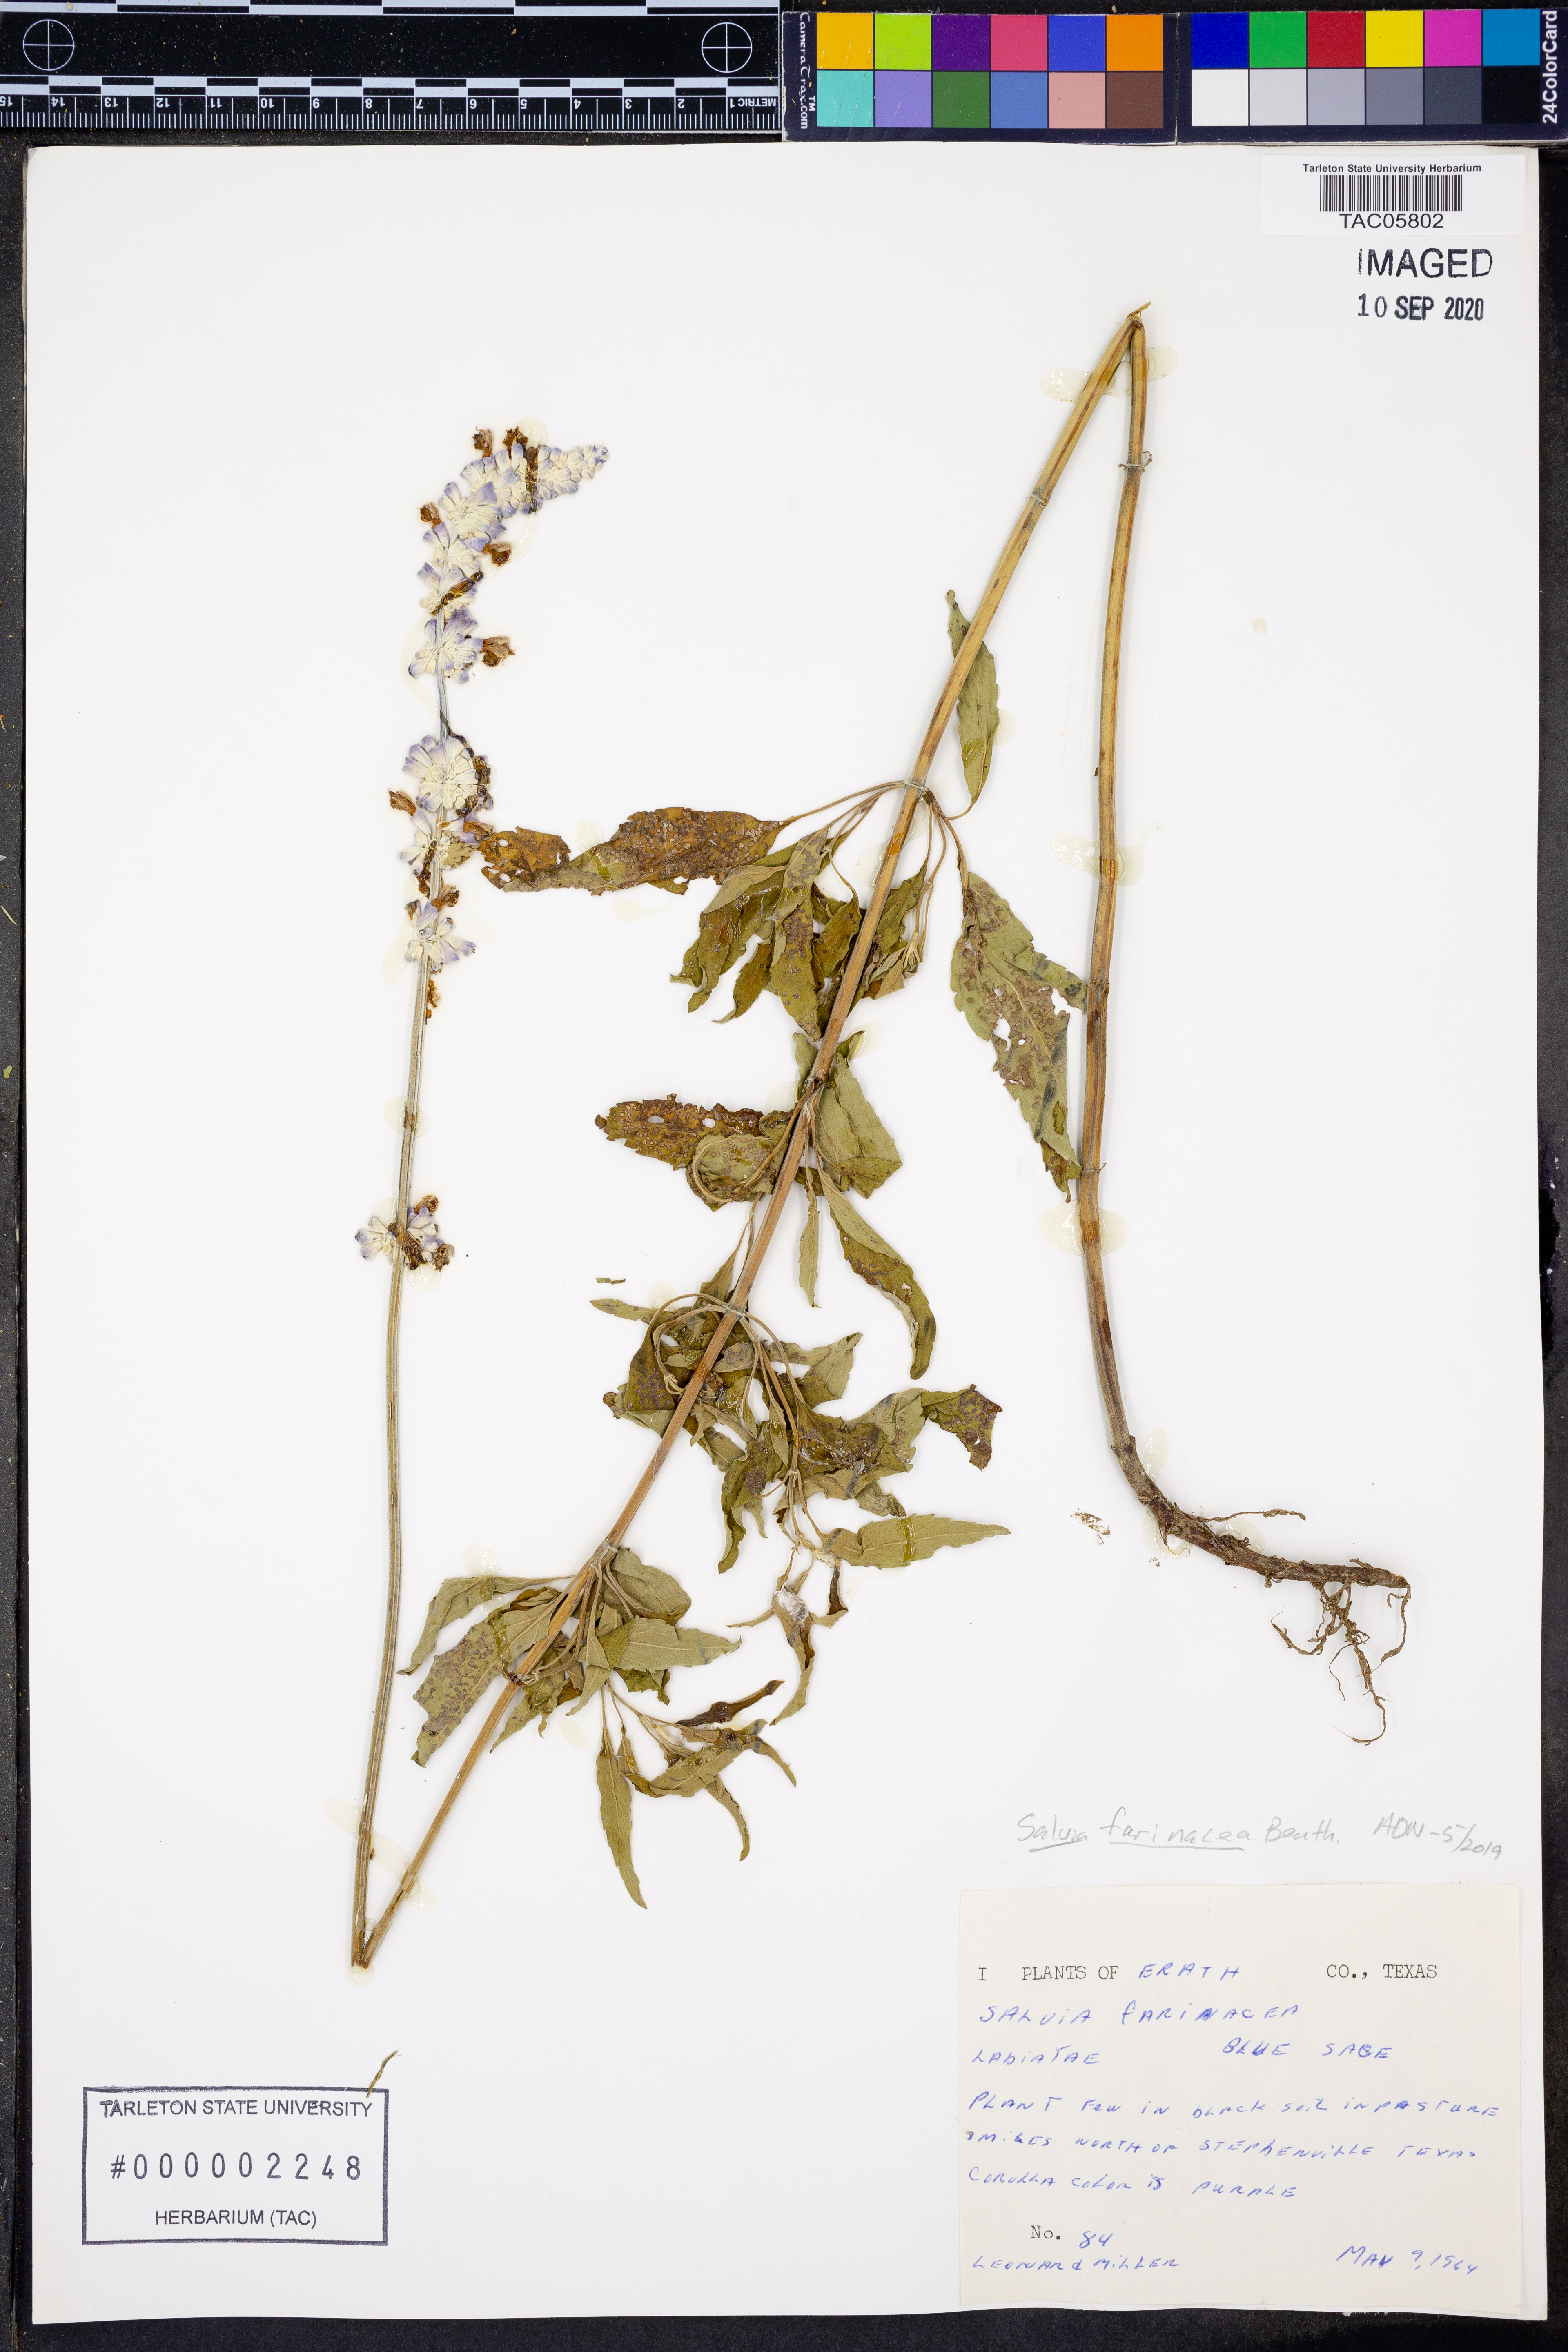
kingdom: Plantae
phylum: Tracheophyta
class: Magnoliopsida
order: Lamiales
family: Lamiaceae
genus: Salvia
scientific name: Salvia farinacea
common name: Mealy sage
